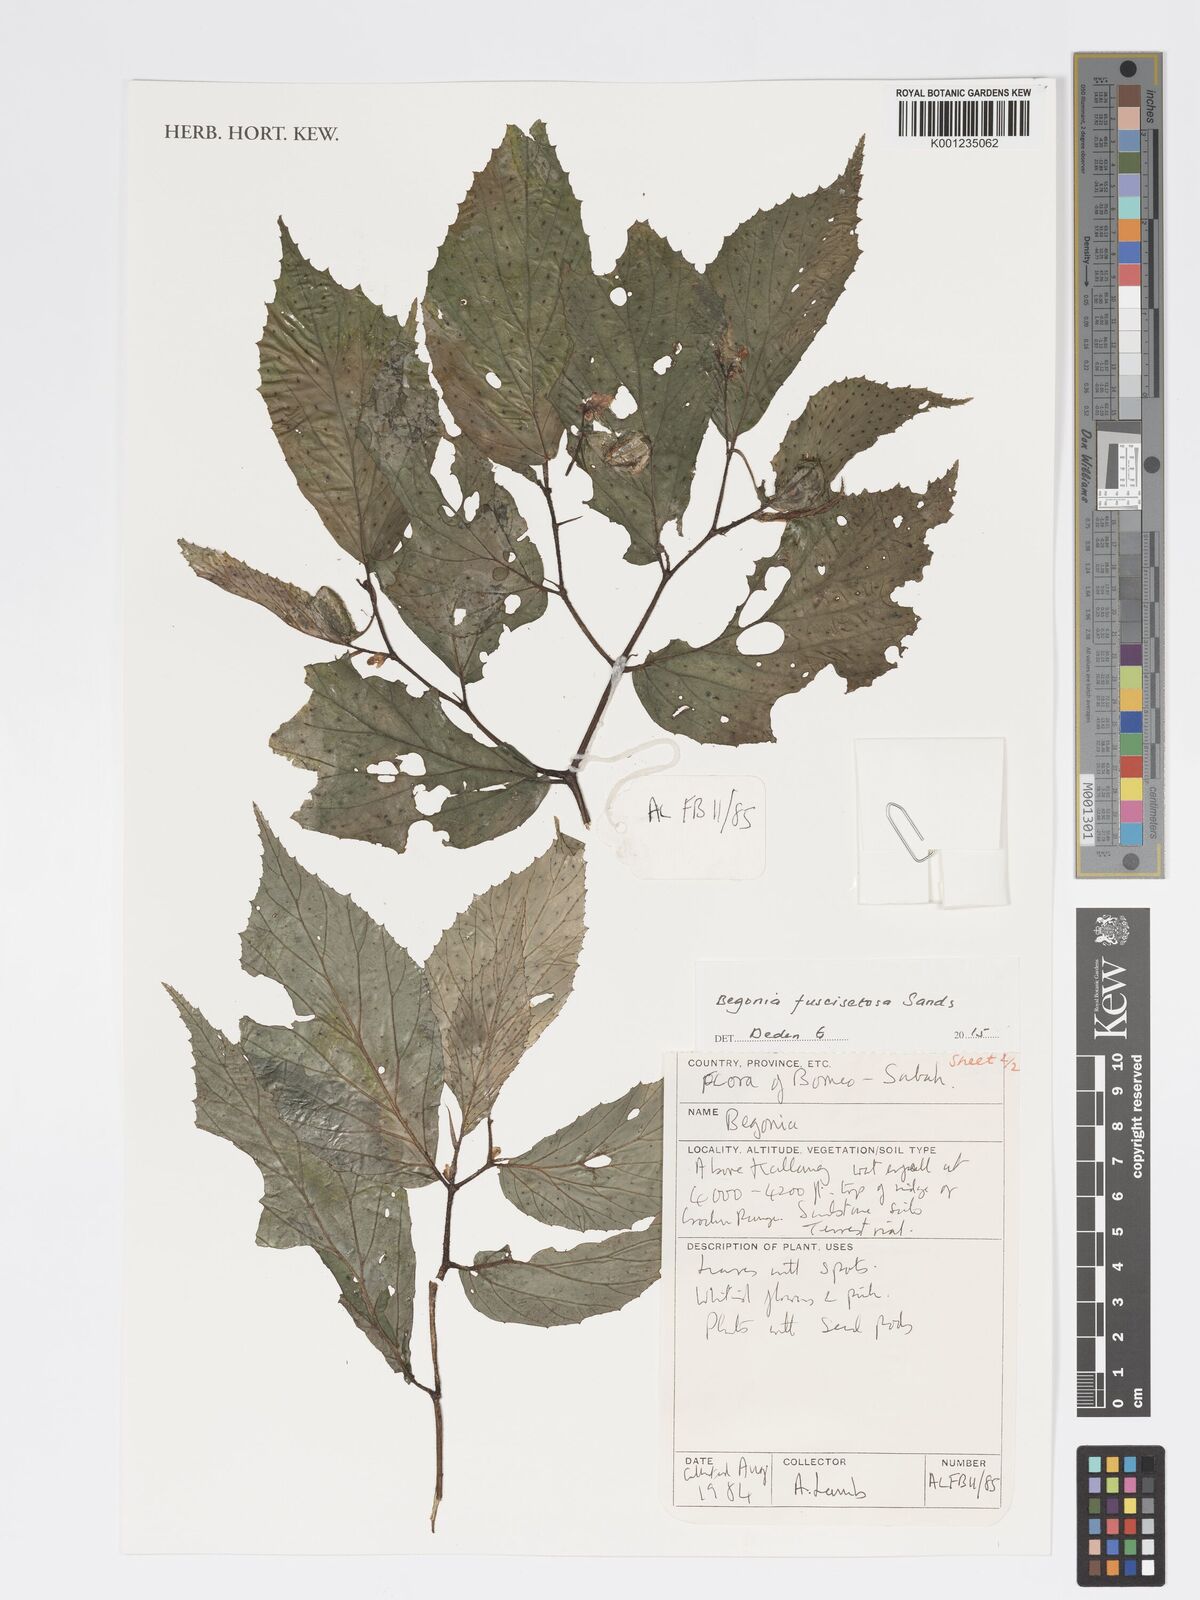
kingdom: Plantae
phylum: Tracheophyta
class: Magnoliopsida
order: Cucurbitales
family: Begoniaceae
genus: Begonia
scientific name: Begonia fuscisetosa
